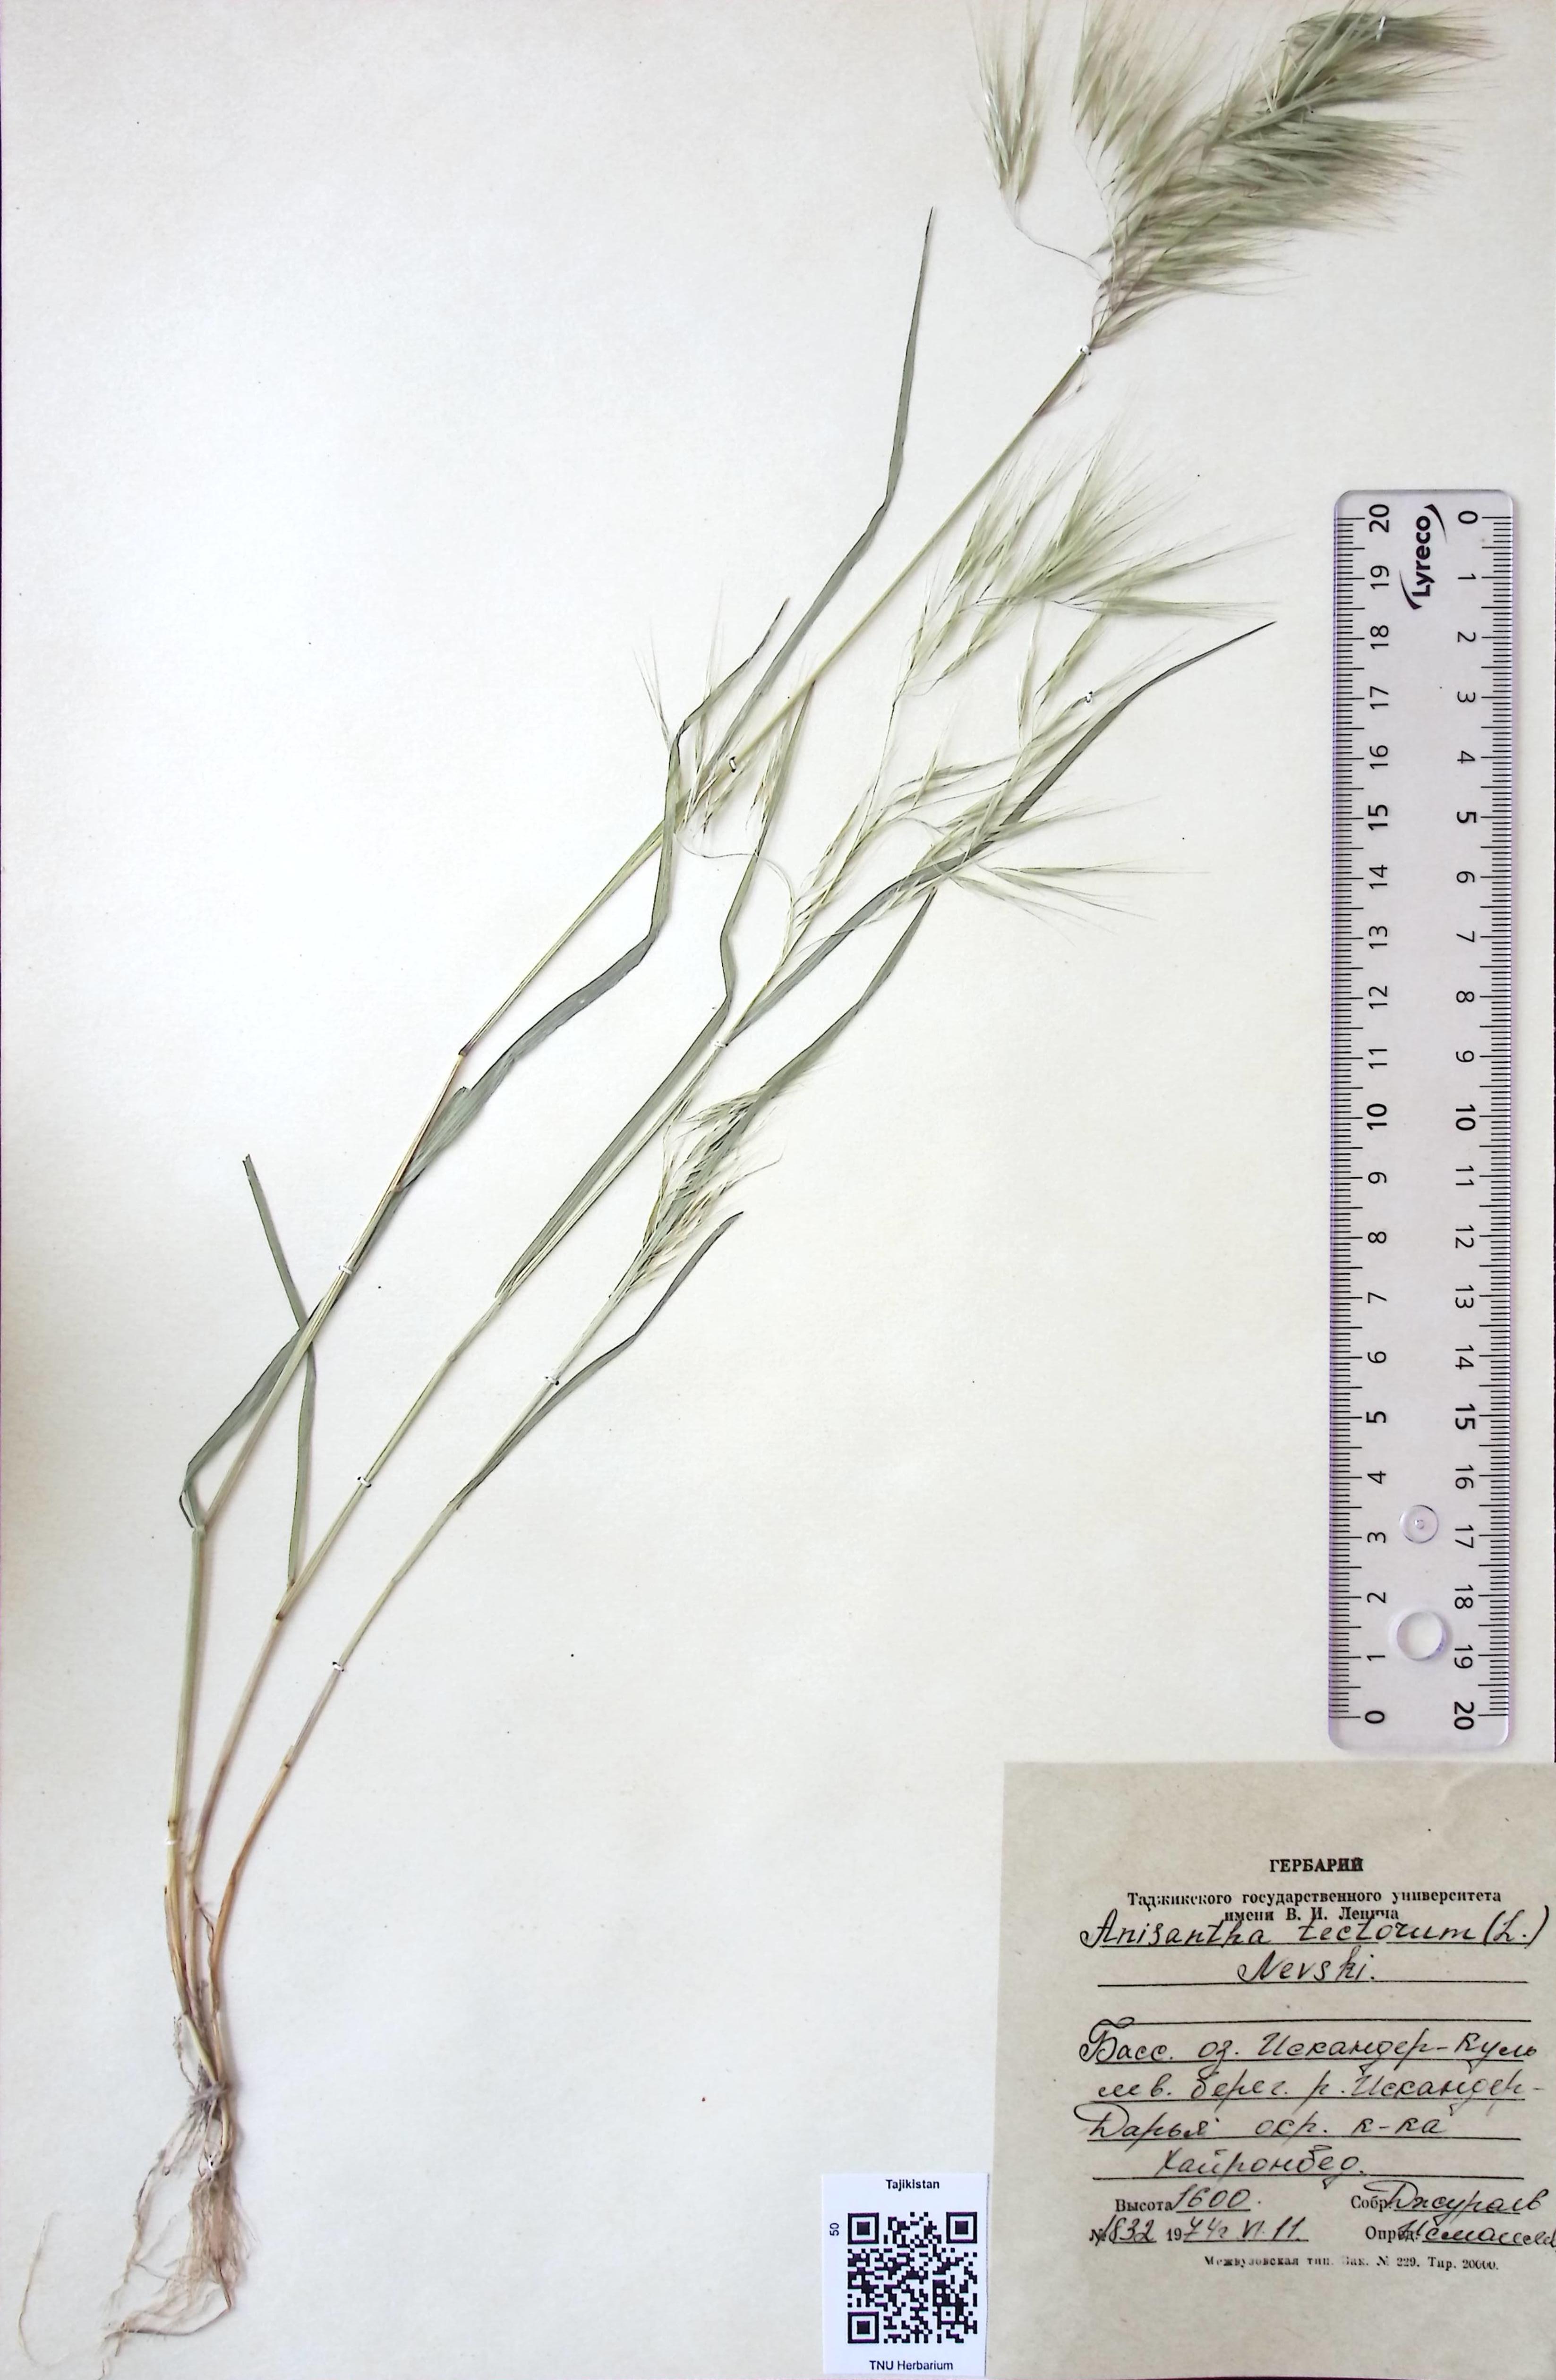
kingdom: Plantae
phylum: Tracheophyta
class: Liliopsida
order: Poales
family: Poaceae
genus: Bromus
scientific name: Bromus tectorum
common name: Cheatgrass
